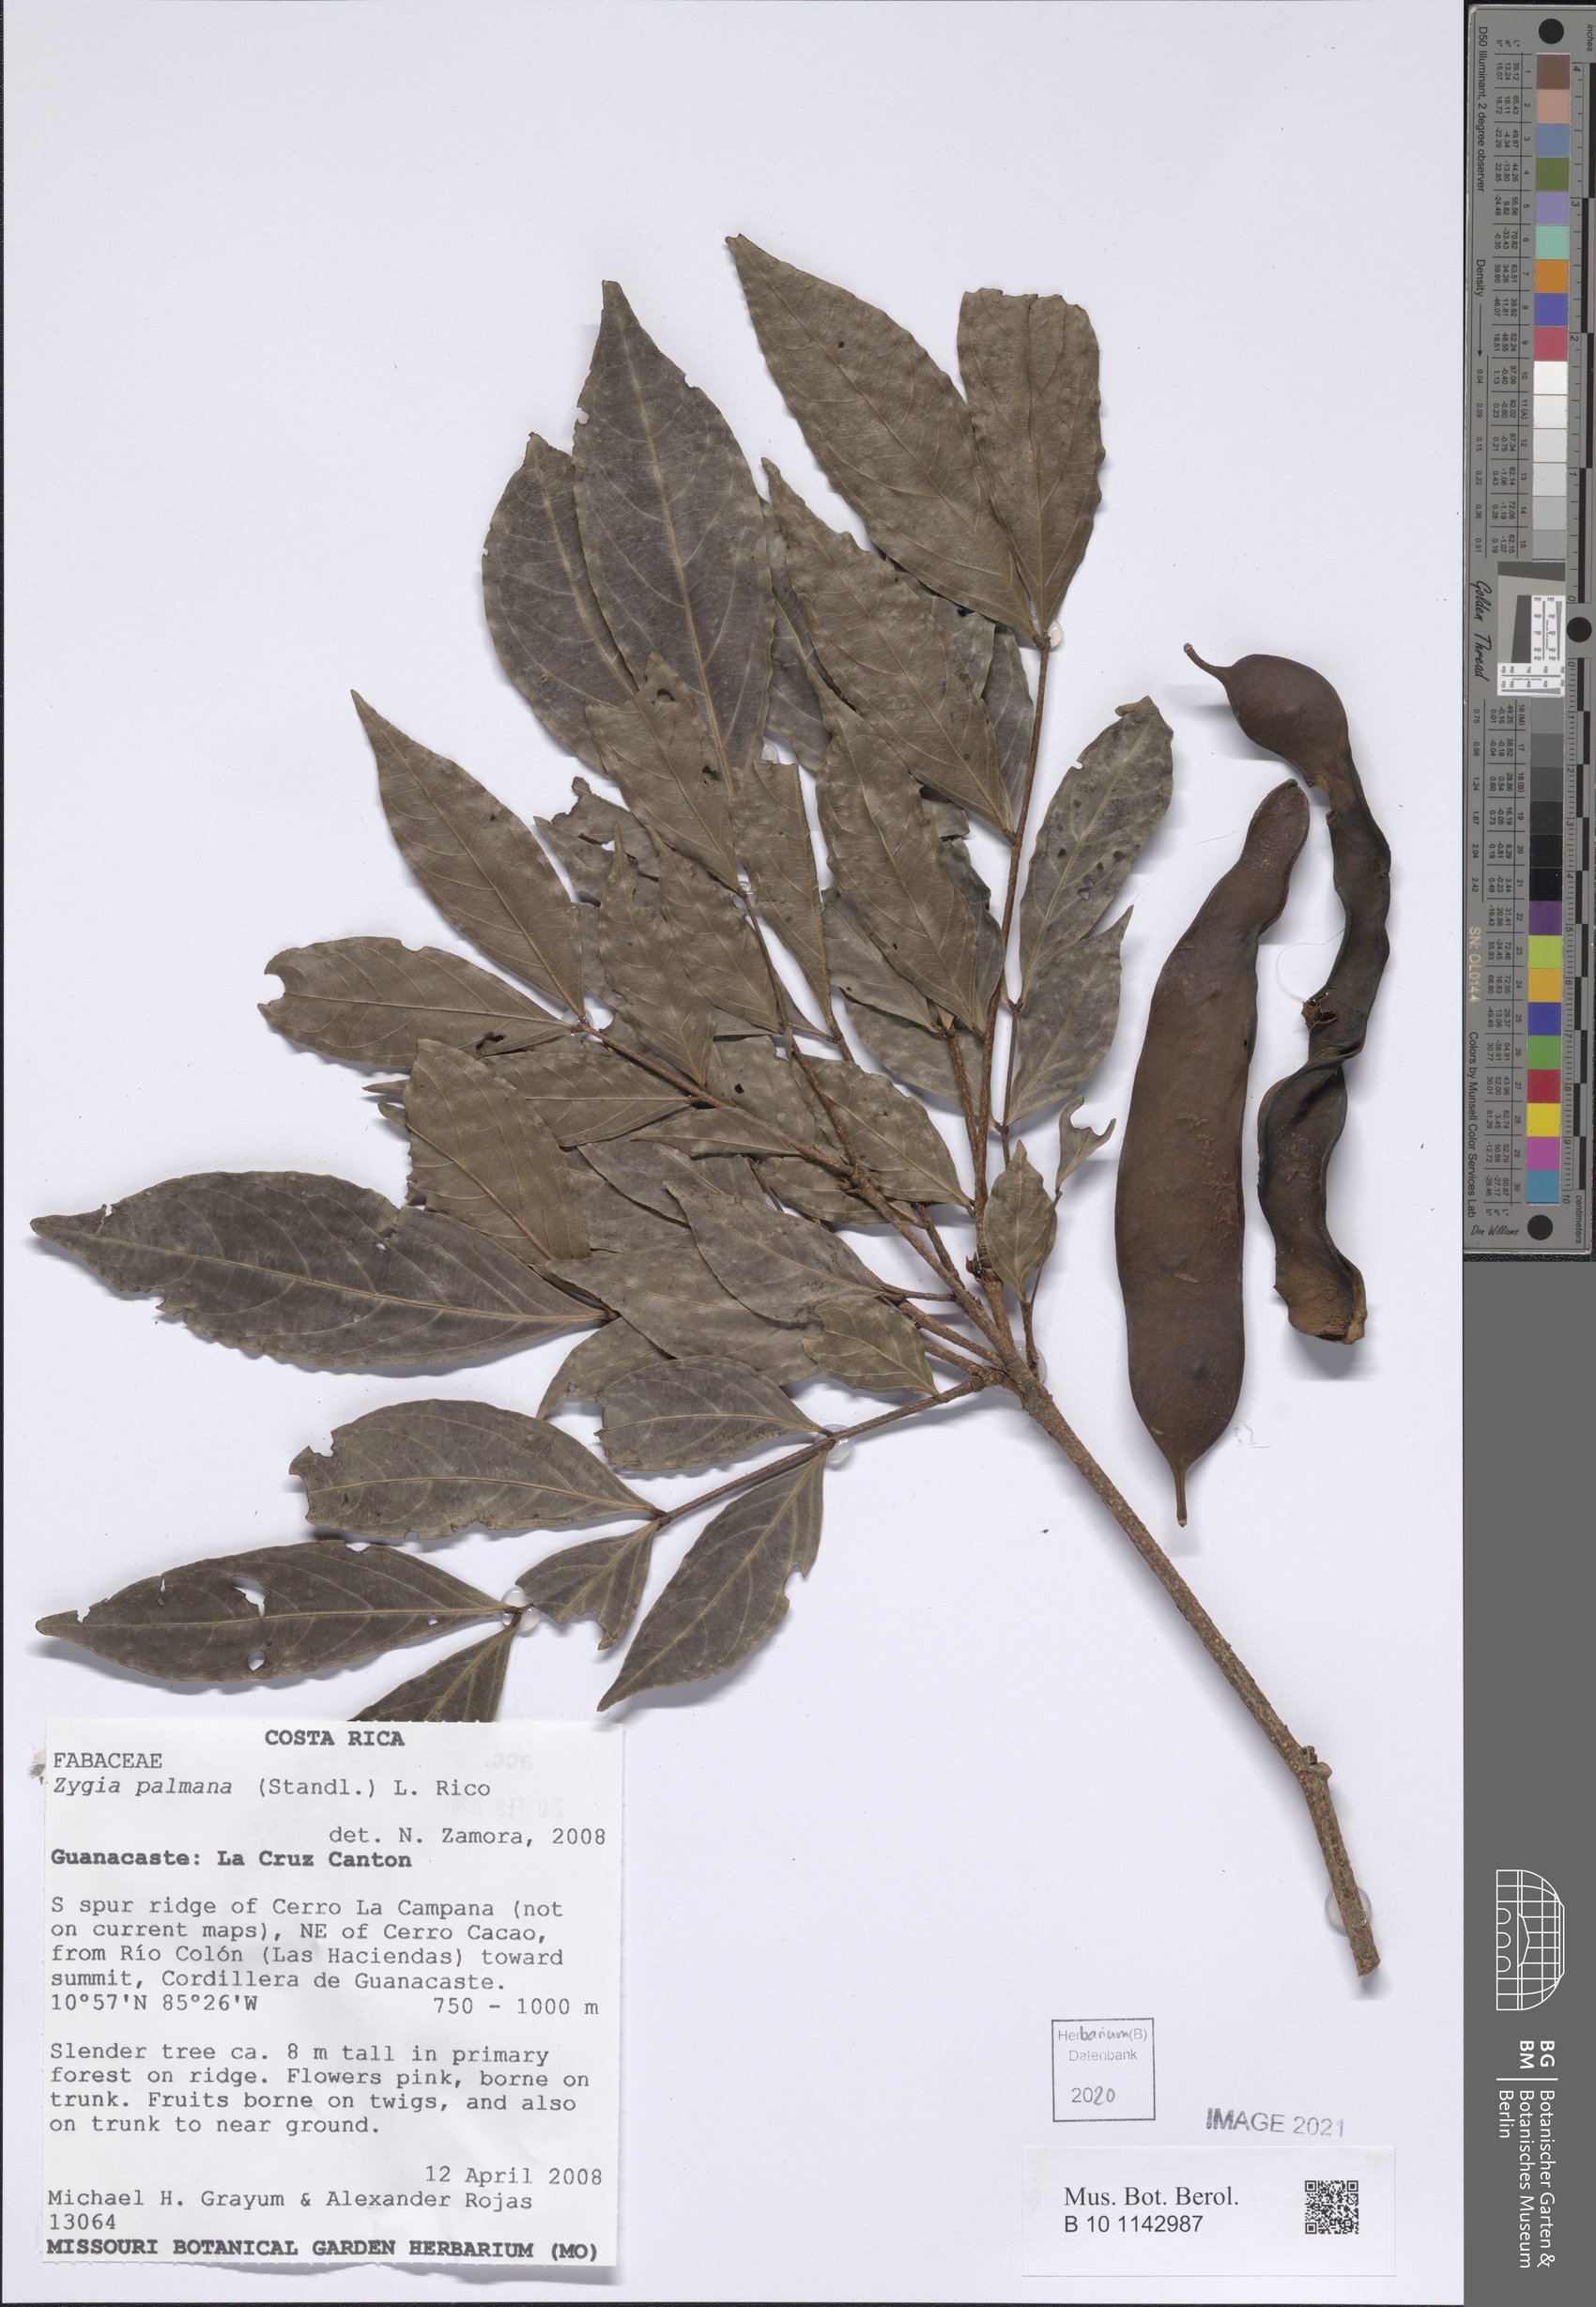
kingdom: Plantae
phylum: Tracheophyta
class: Magnoliopsida
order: Fabales
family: Fabaceae
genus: Zygia
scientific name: Zygia palmana
